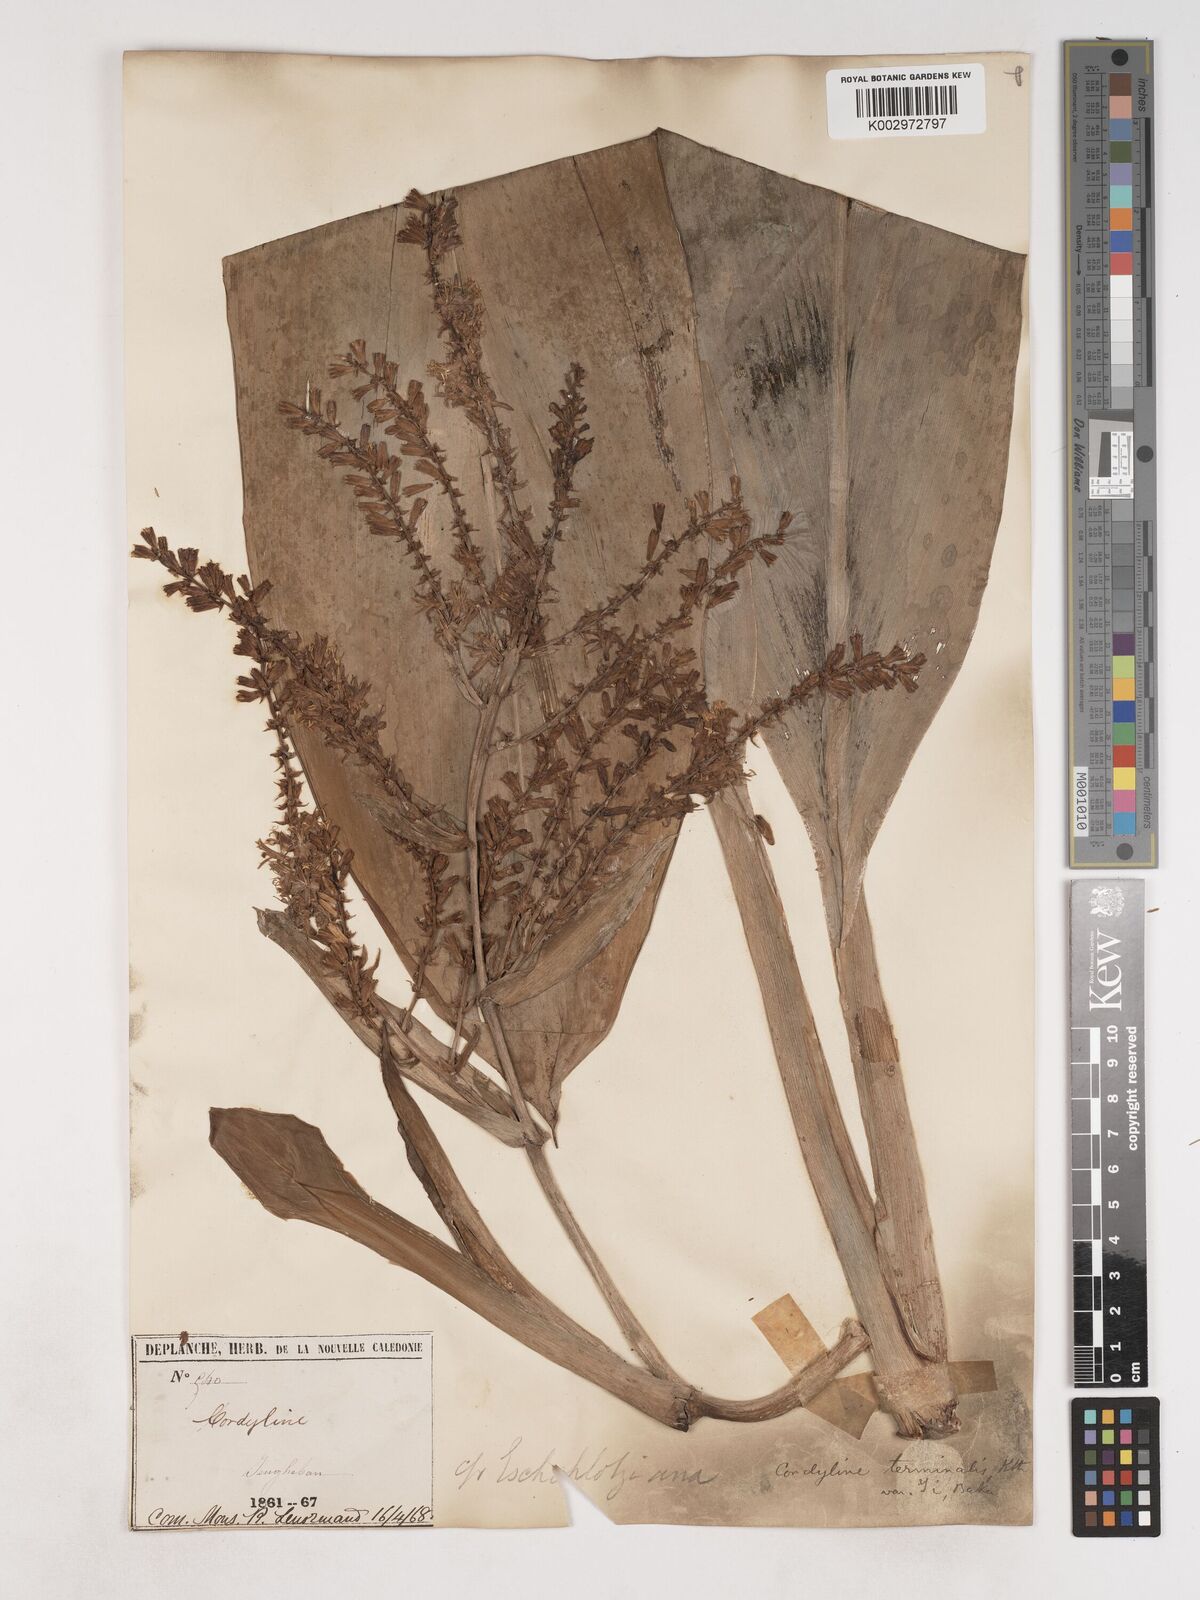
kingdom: Plantae
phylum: Tracheophyta
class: Liliopsida
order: Asparagales
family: Asparagaceae
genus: Cordyline
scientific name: Cordyline fruticosa
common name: Good-luck-plant
